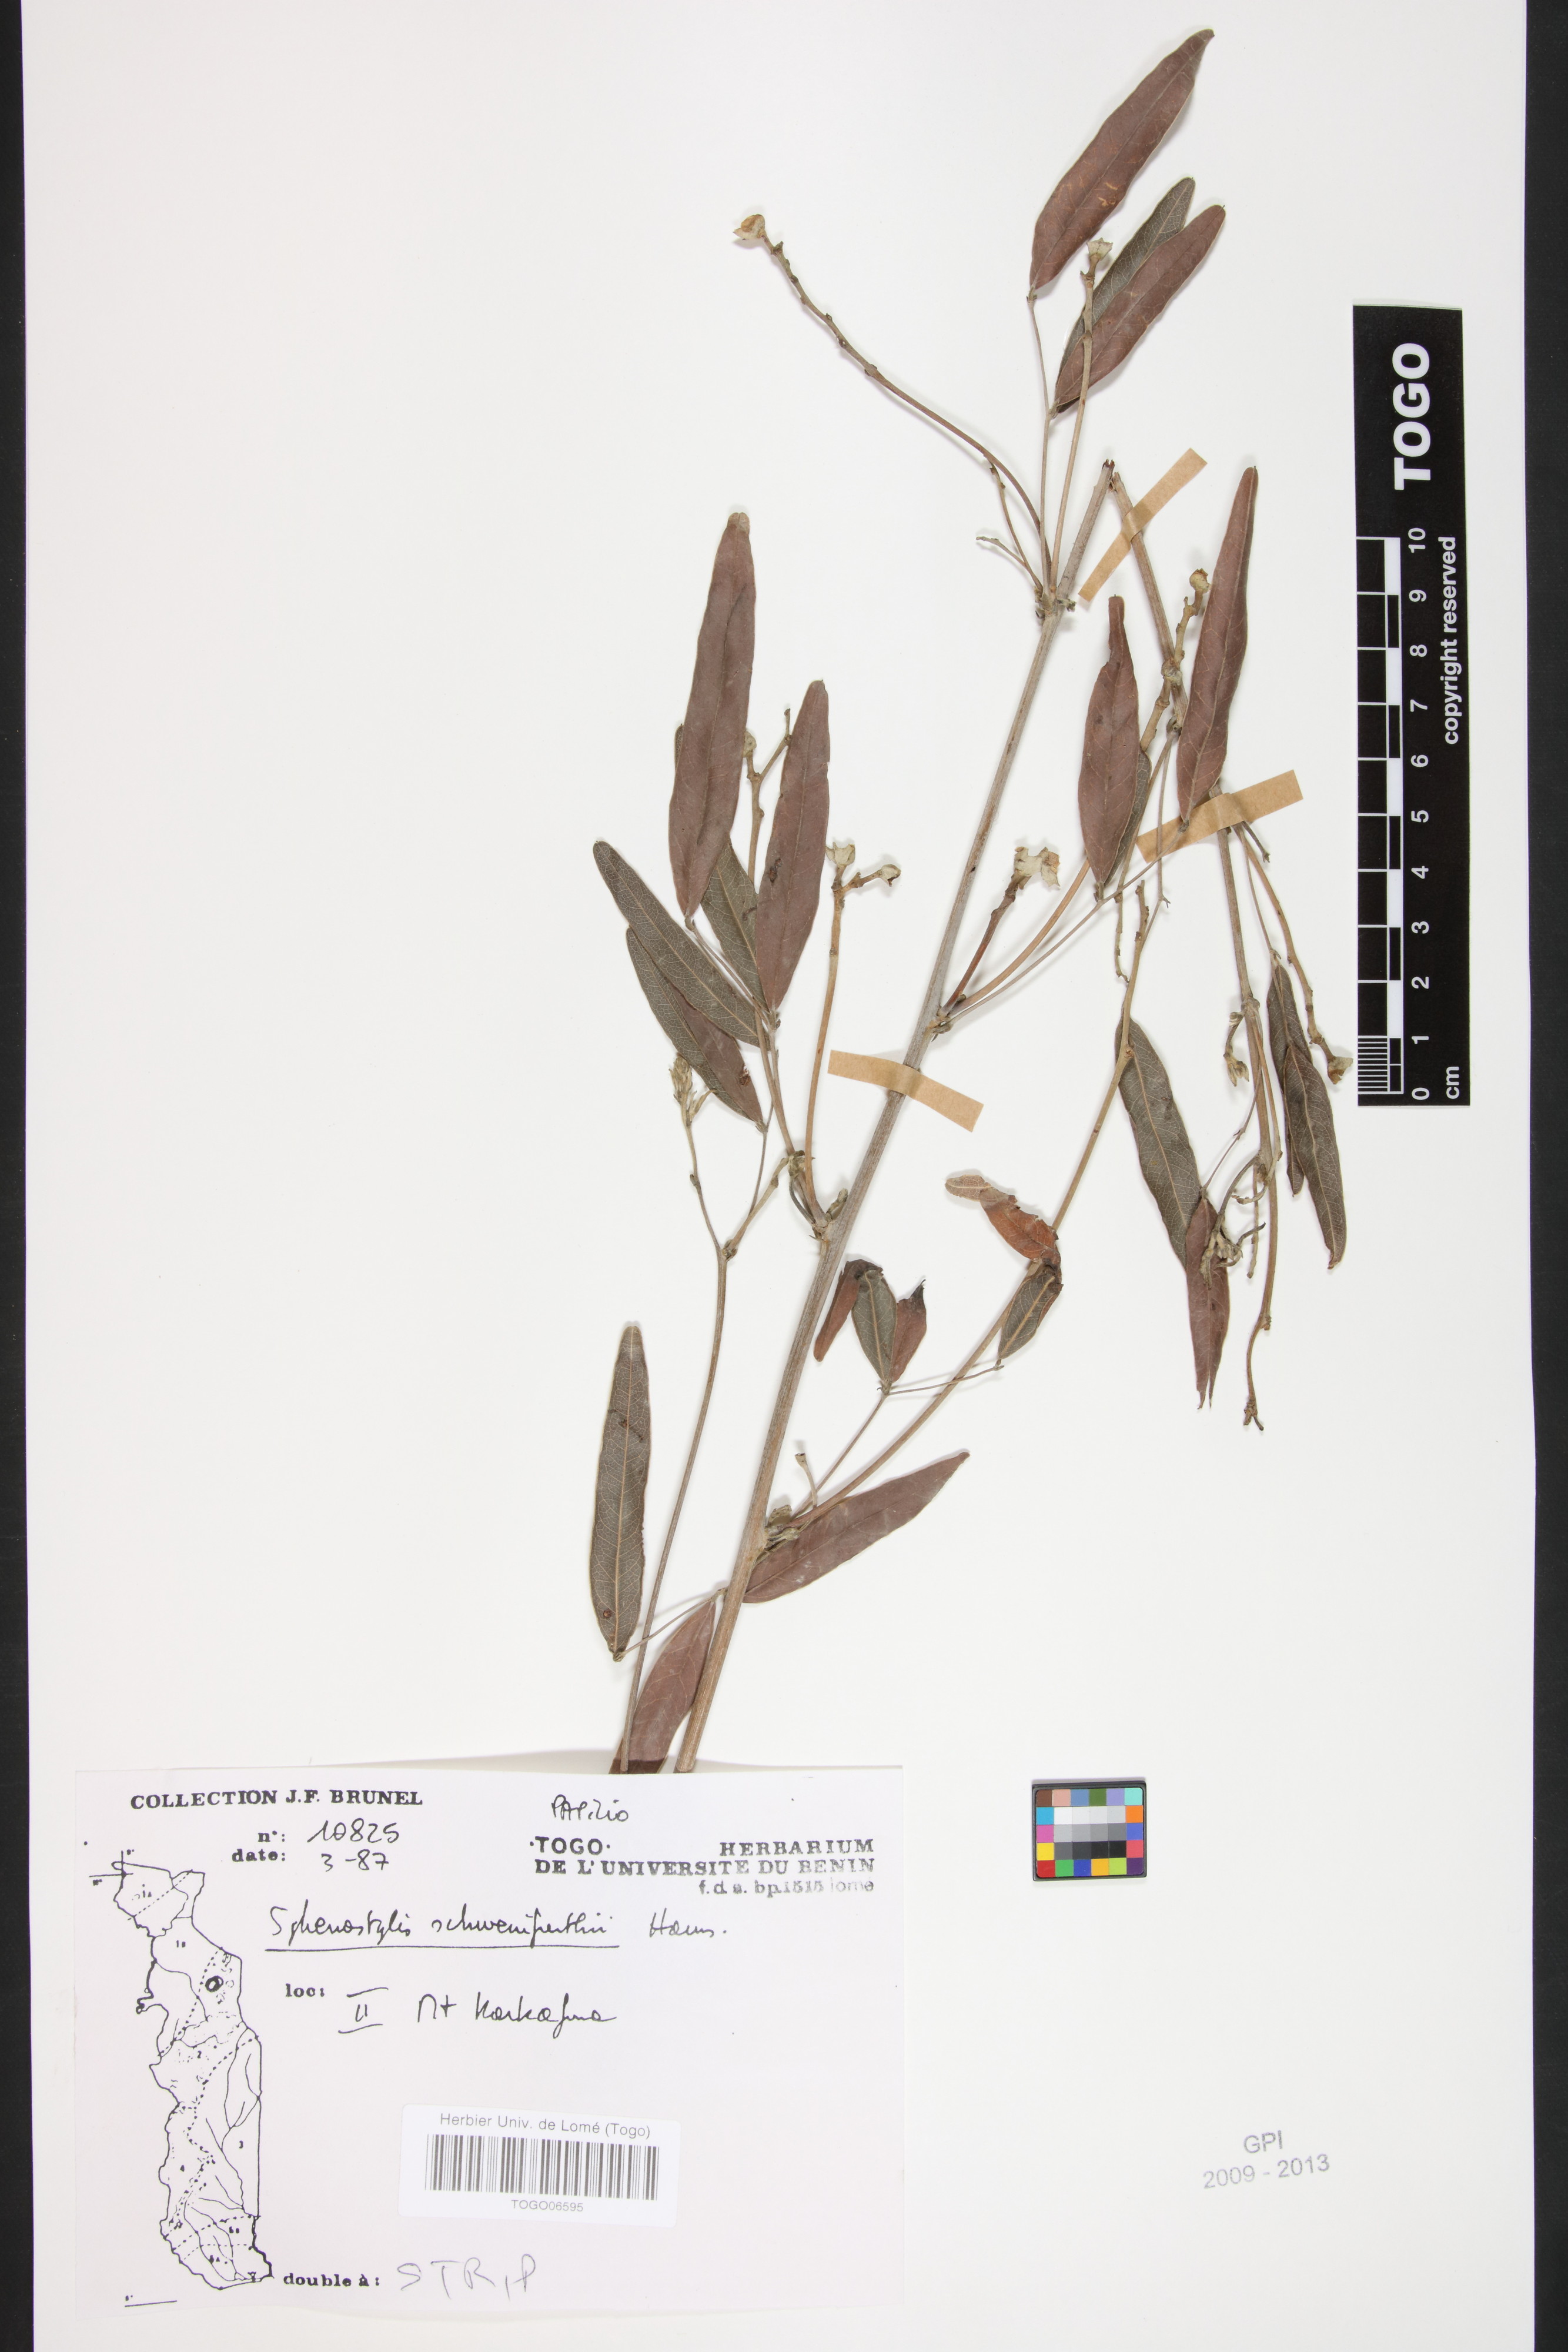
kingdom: Plantae
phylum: Tracheophyta
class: Magnoliopsida
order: Fabales
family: Fabaceae
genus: Sphenostylis
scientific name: Sphenostylis schweinfurthii
